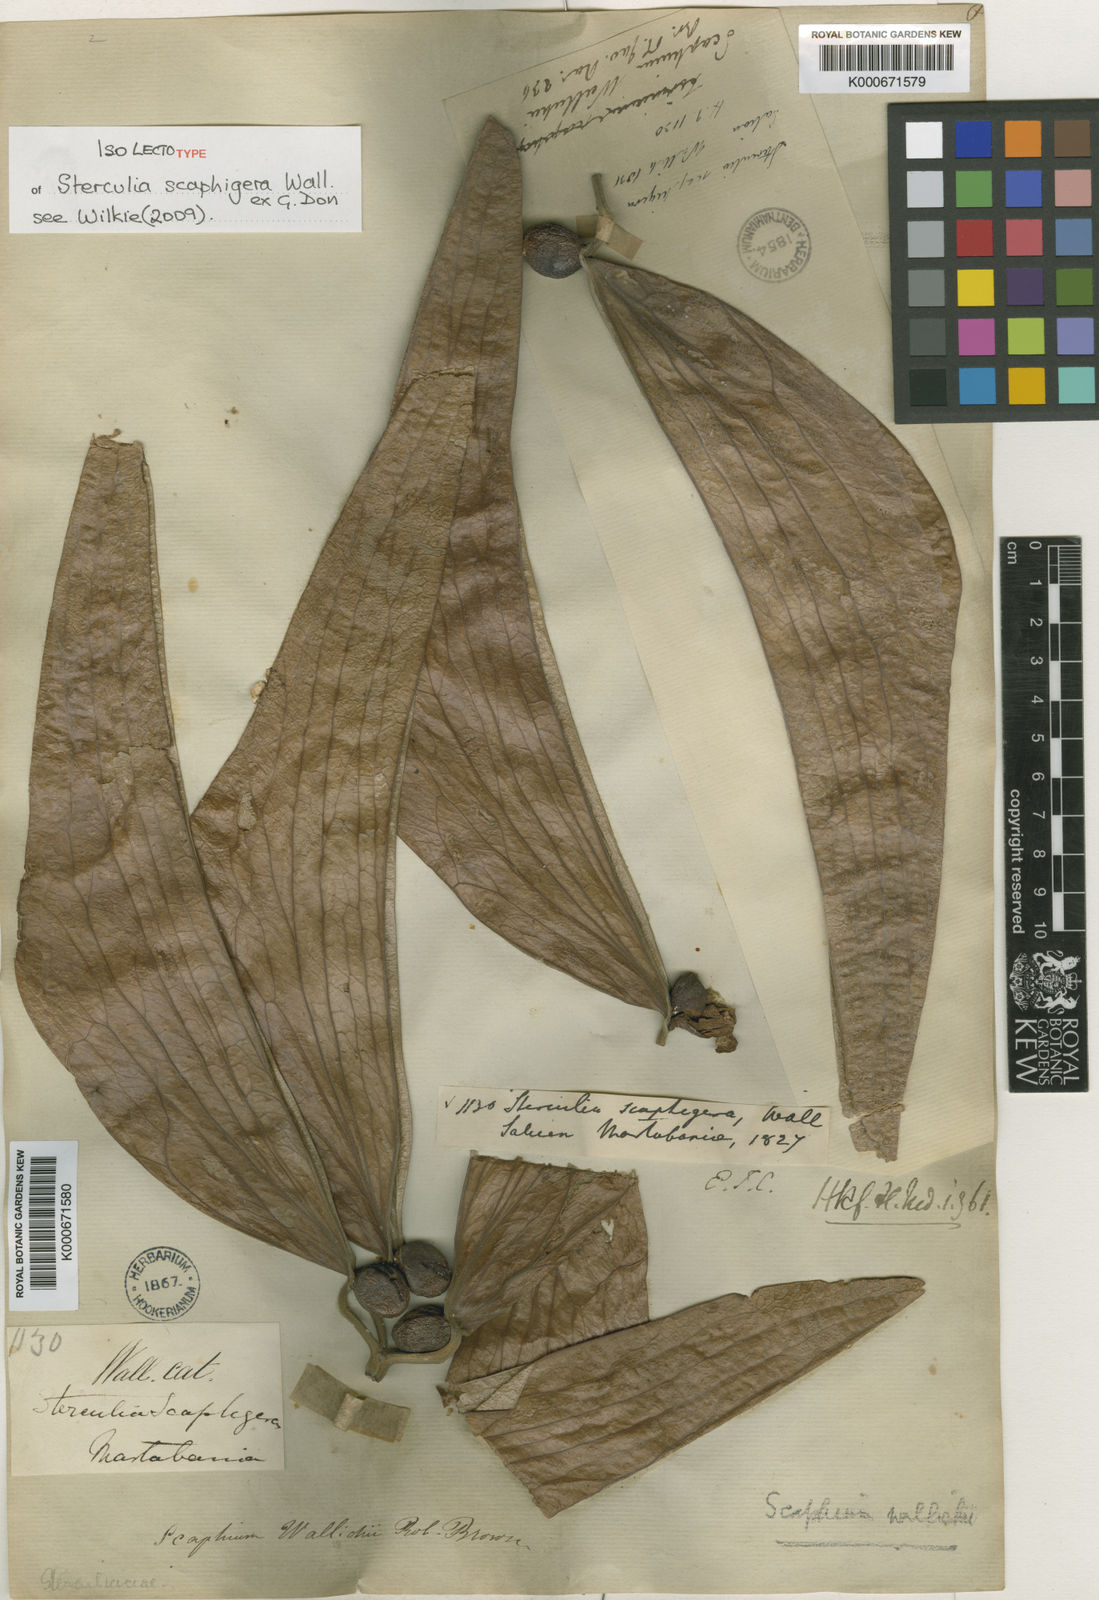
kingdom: Plantae
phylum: Tracheophyta
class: Magnoliopsida
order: Malvales
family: Malvaceae
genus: Scaphium
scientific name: Scaphium
